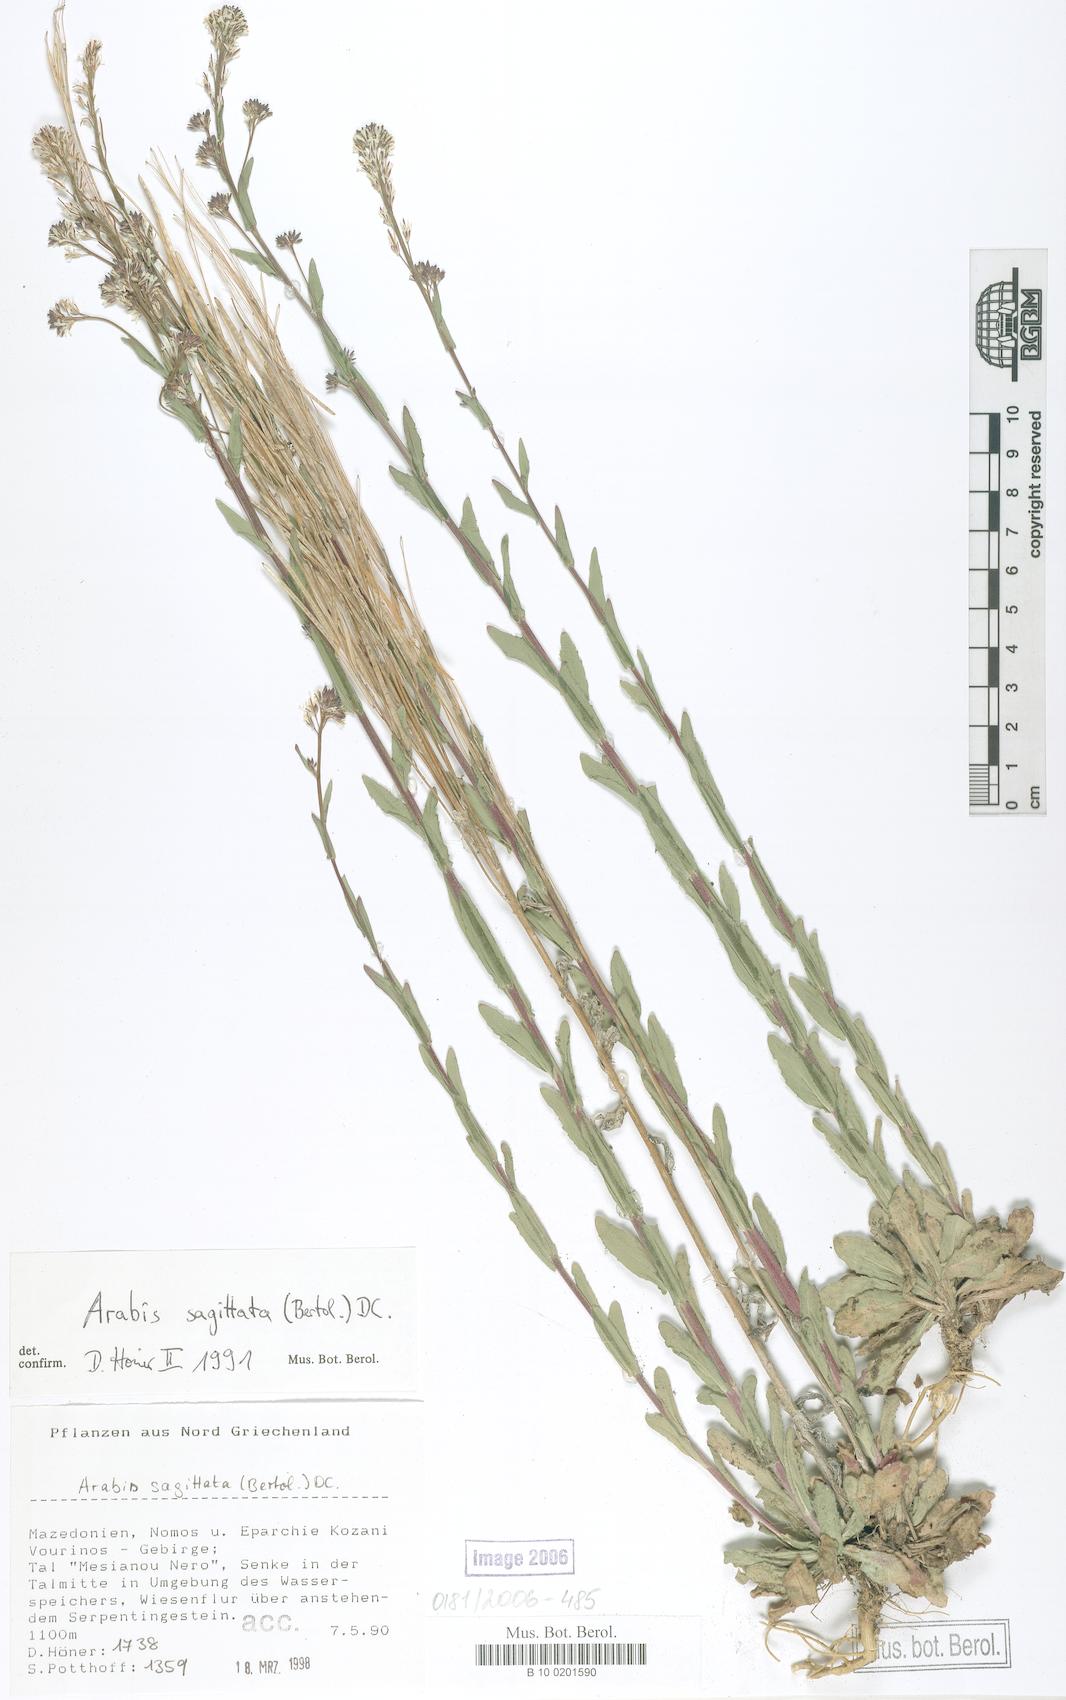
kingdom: Plantae
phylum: Tracheophyta
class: Magnoliopsida
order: Brassicales
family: Brassicaceae
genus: Arabis
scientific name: Arabis sagittata
